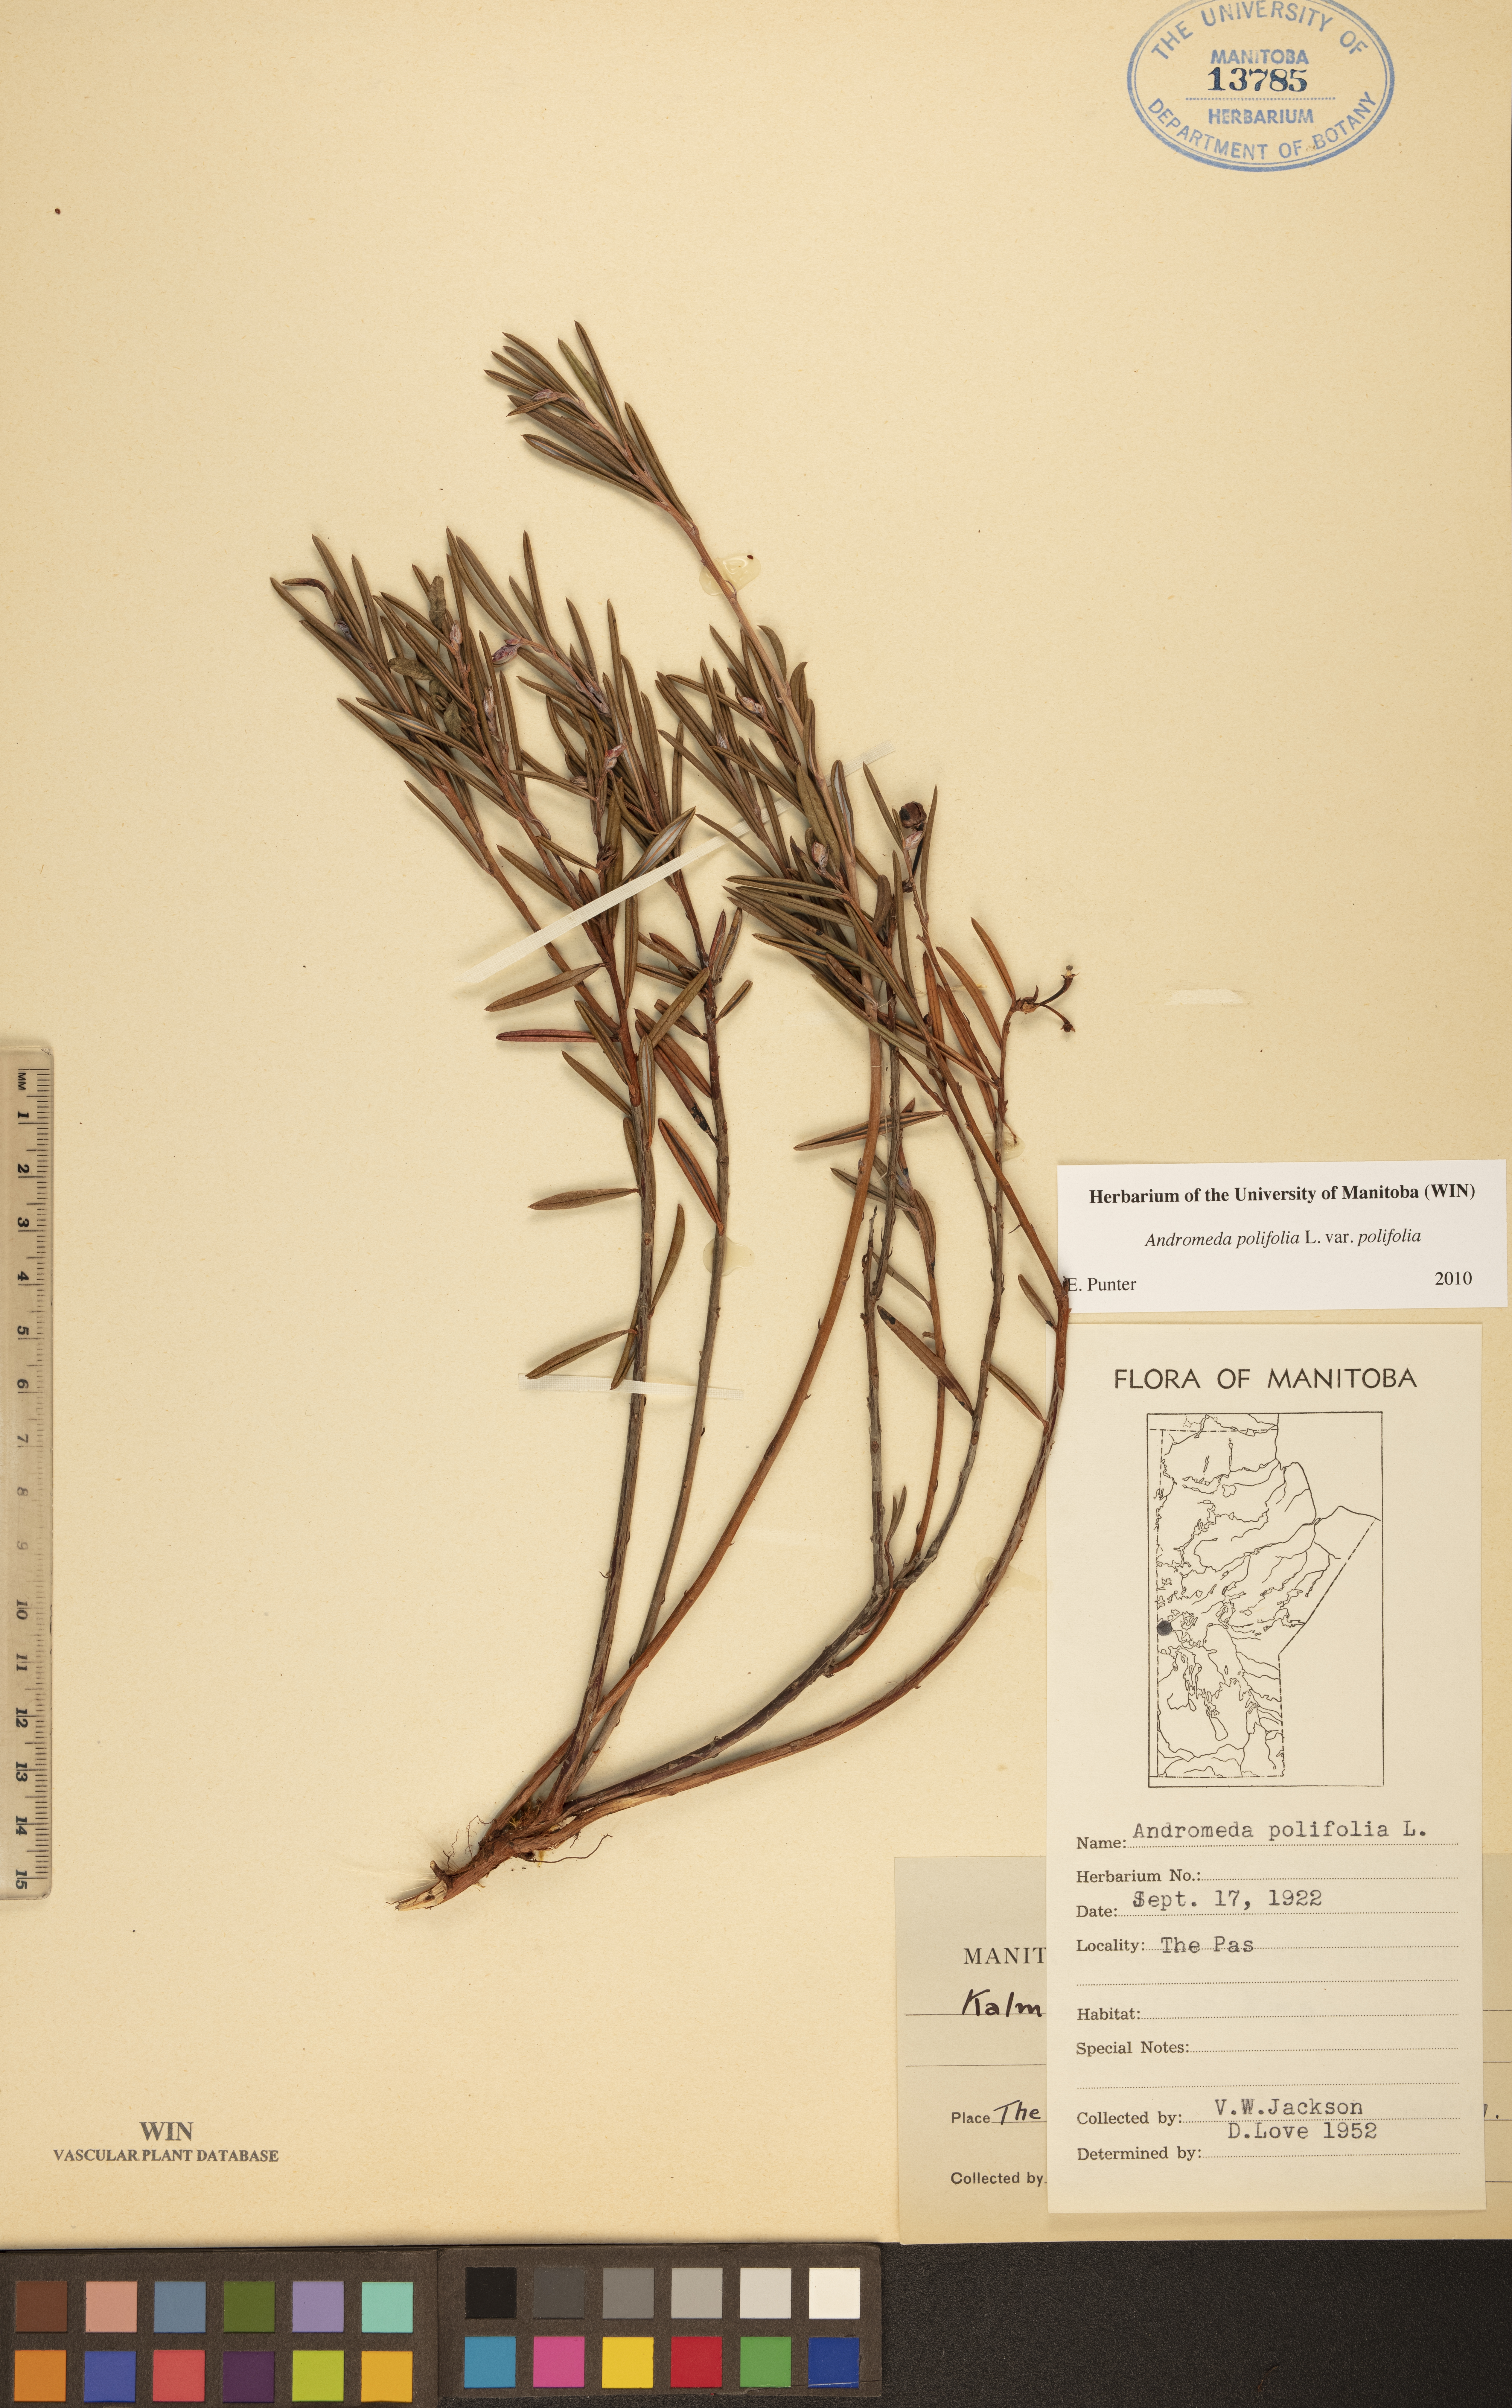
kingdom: Plantae
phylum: Tracheophyta
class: Magnoliopsida
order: Ericales
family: Ericaceae
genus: Andromeda
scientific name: Andromeda polifolia
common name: Bog-rosemary
